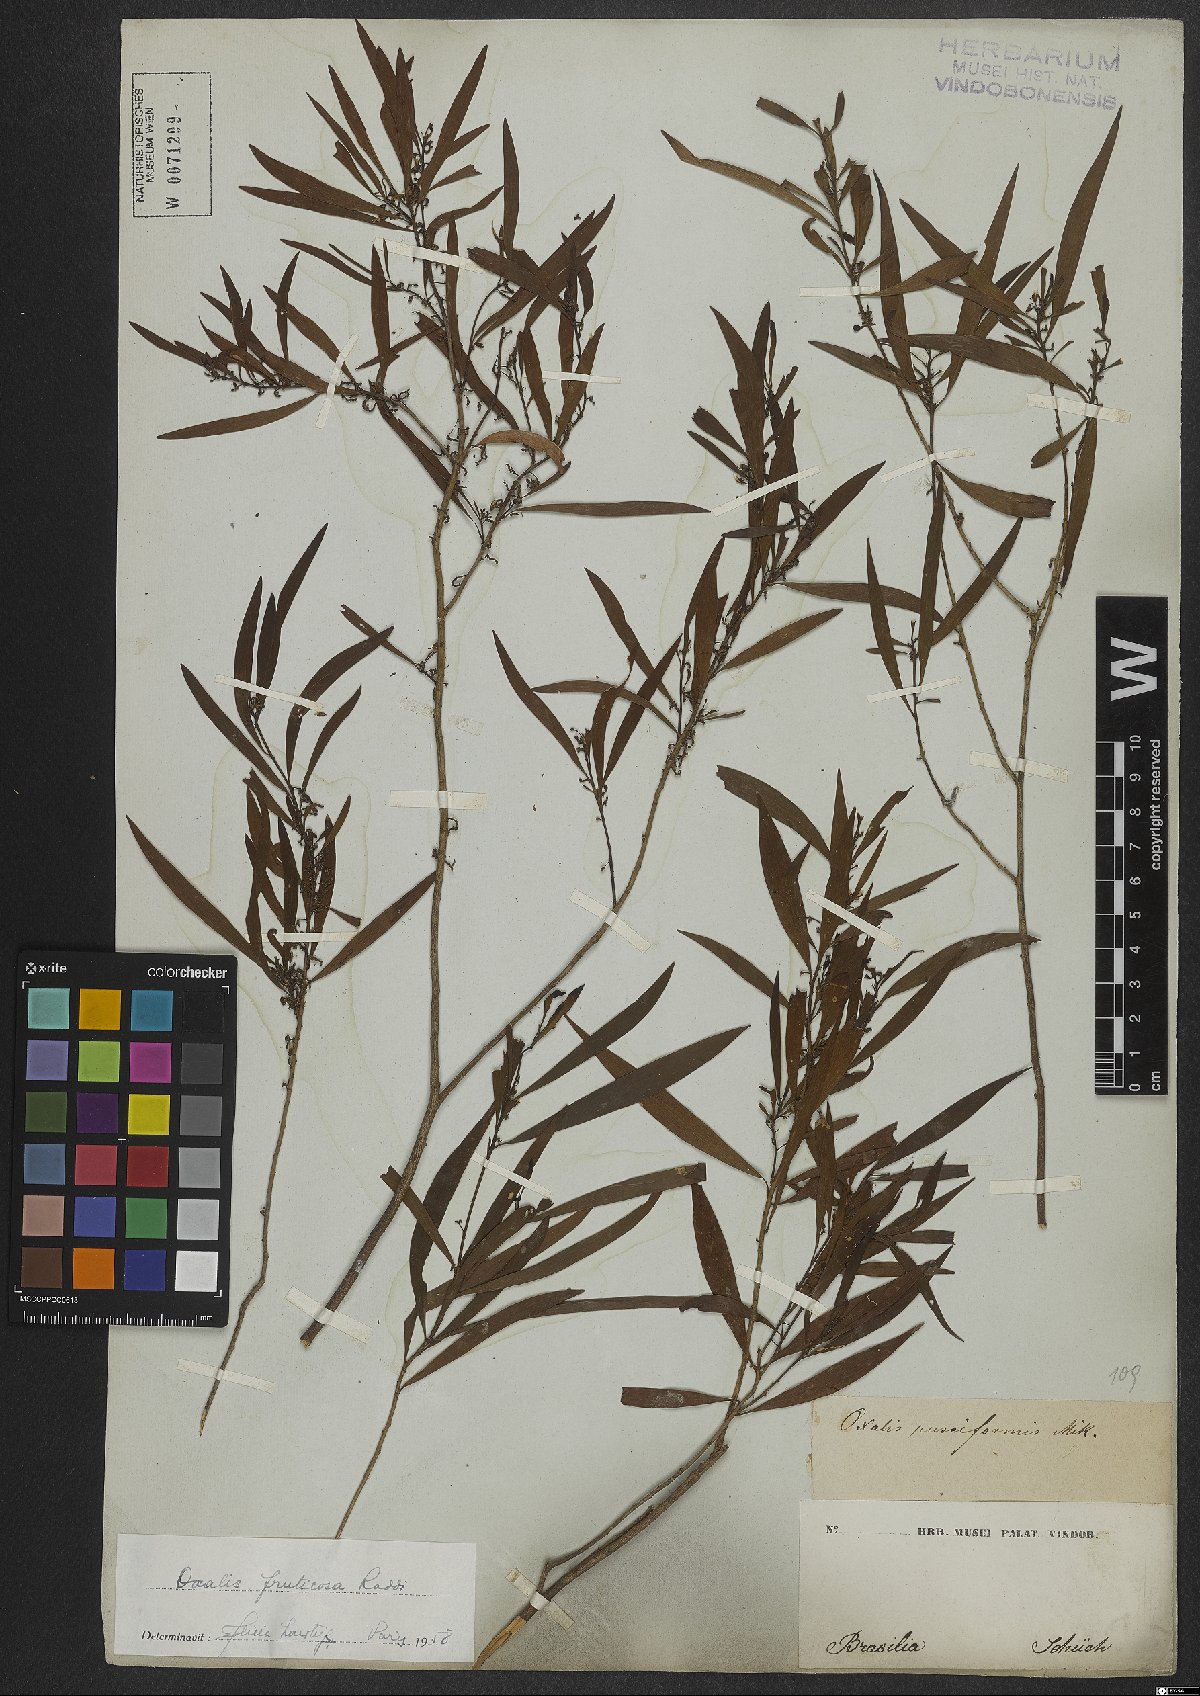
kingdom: Plantae
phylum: Tracheophyta
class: Magnoliopsida
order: Oxalidales
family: Oxalidaceae
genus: Oxalis
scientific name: Oxalis fruticosa
